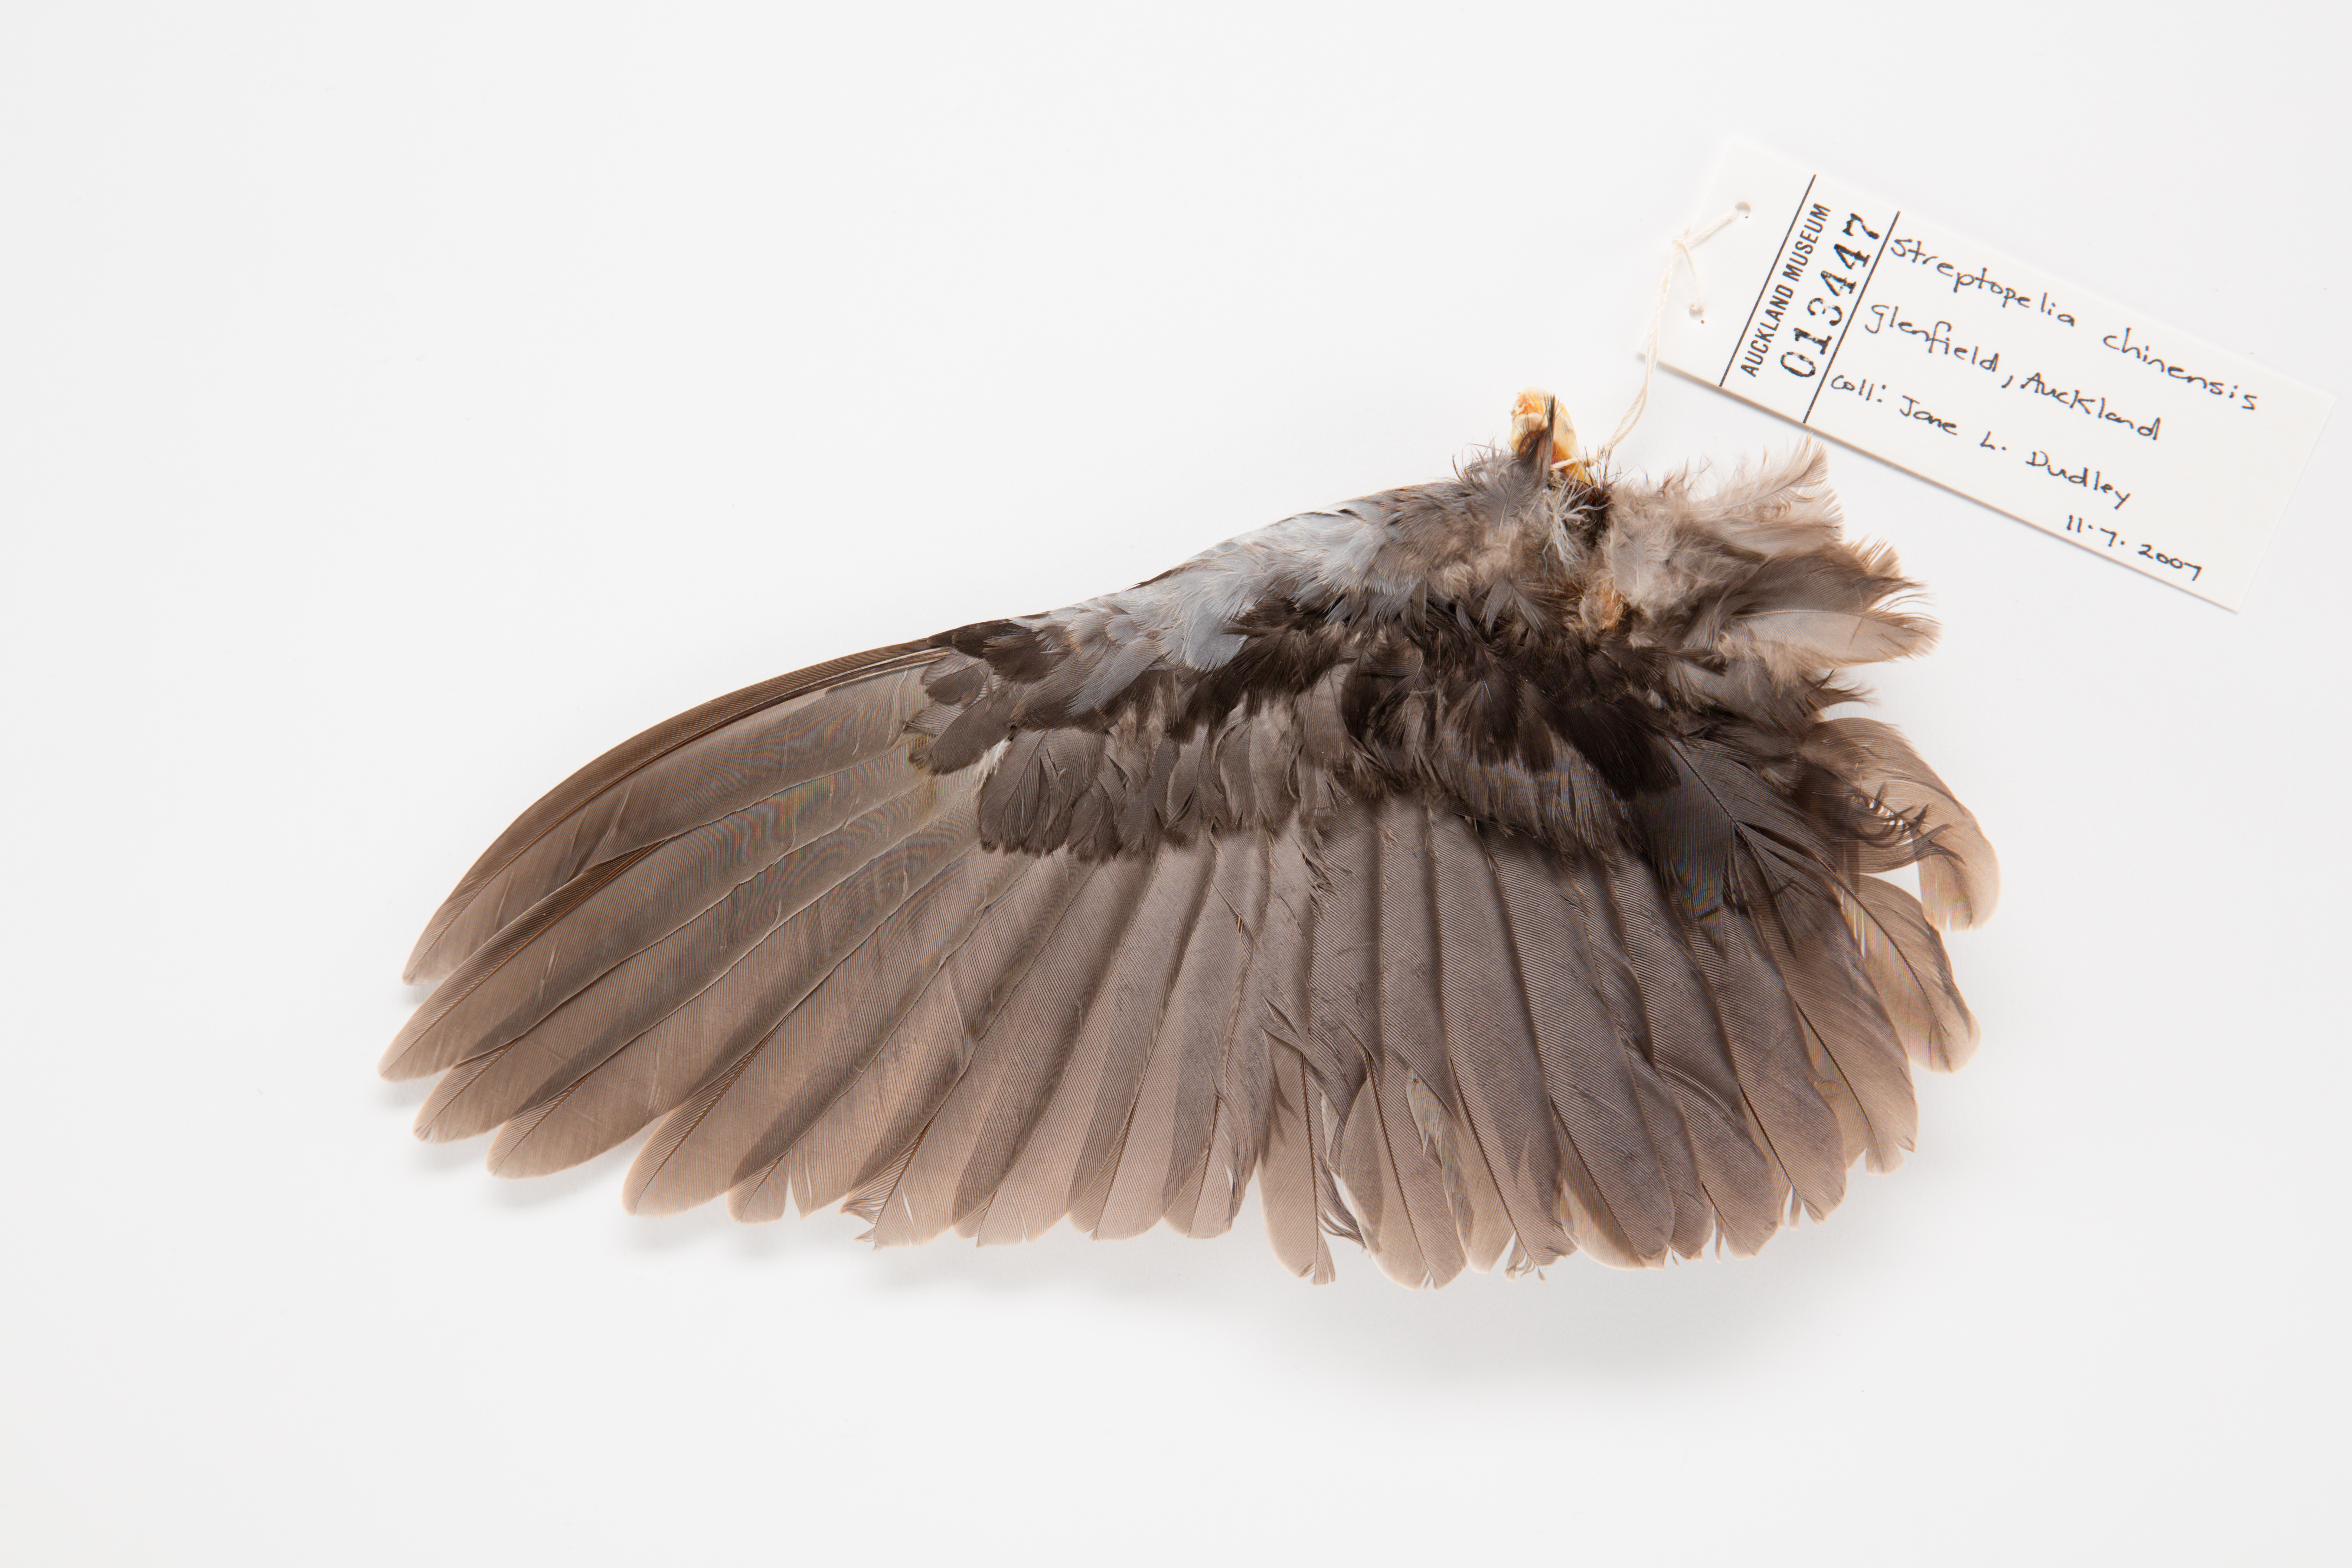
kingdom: Animalia
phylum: Chordata
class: Aves
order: Columbiformes
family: Columbidae
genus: Spilopelia
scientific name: Spilopelia chinensis
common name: Spotted dove
